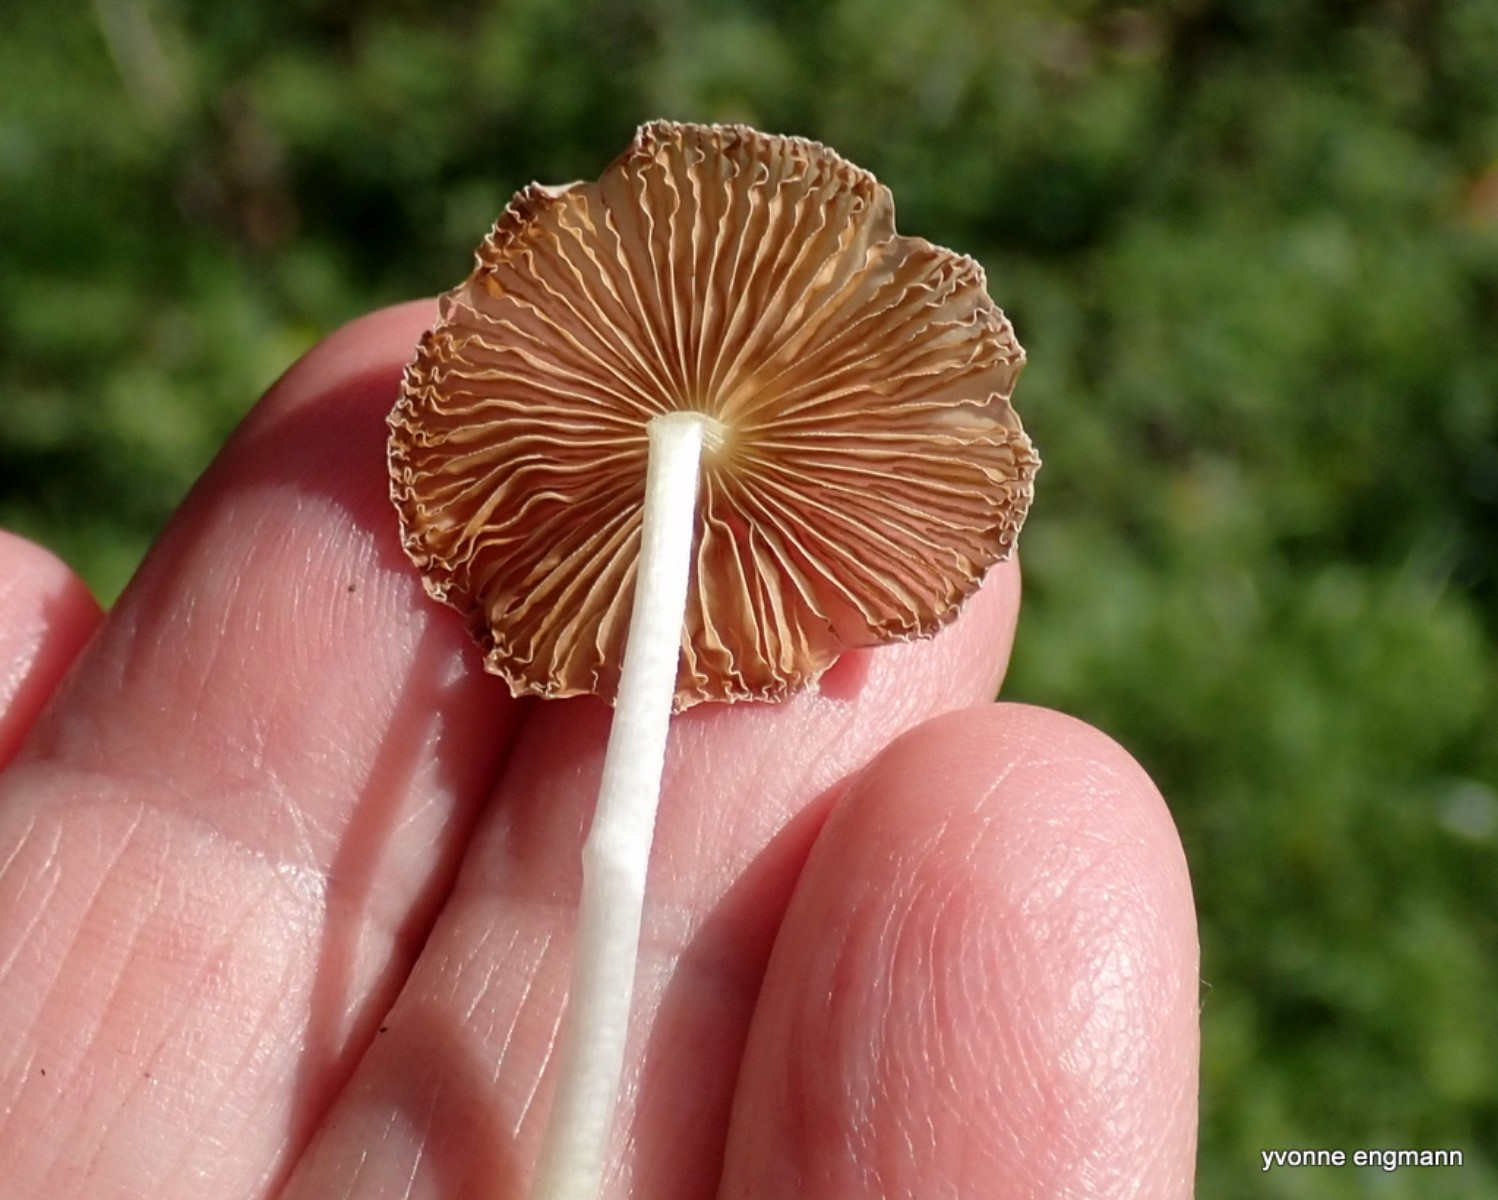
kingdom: Fungi
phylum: Basidiomycota
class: Agaricomycetes
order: Agaricales
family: Bolbitiaceae
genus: Bolbitius
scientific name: Bolbitius titubans
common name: almindelig gulhat
